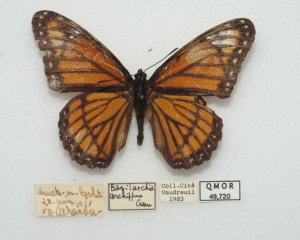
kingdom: Animalia
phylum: Arthropoda
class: Insecta
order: Lepidoptera
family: Nymphalidae
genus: Limenitis
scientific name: Limenitis archippus
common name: Viceroy
